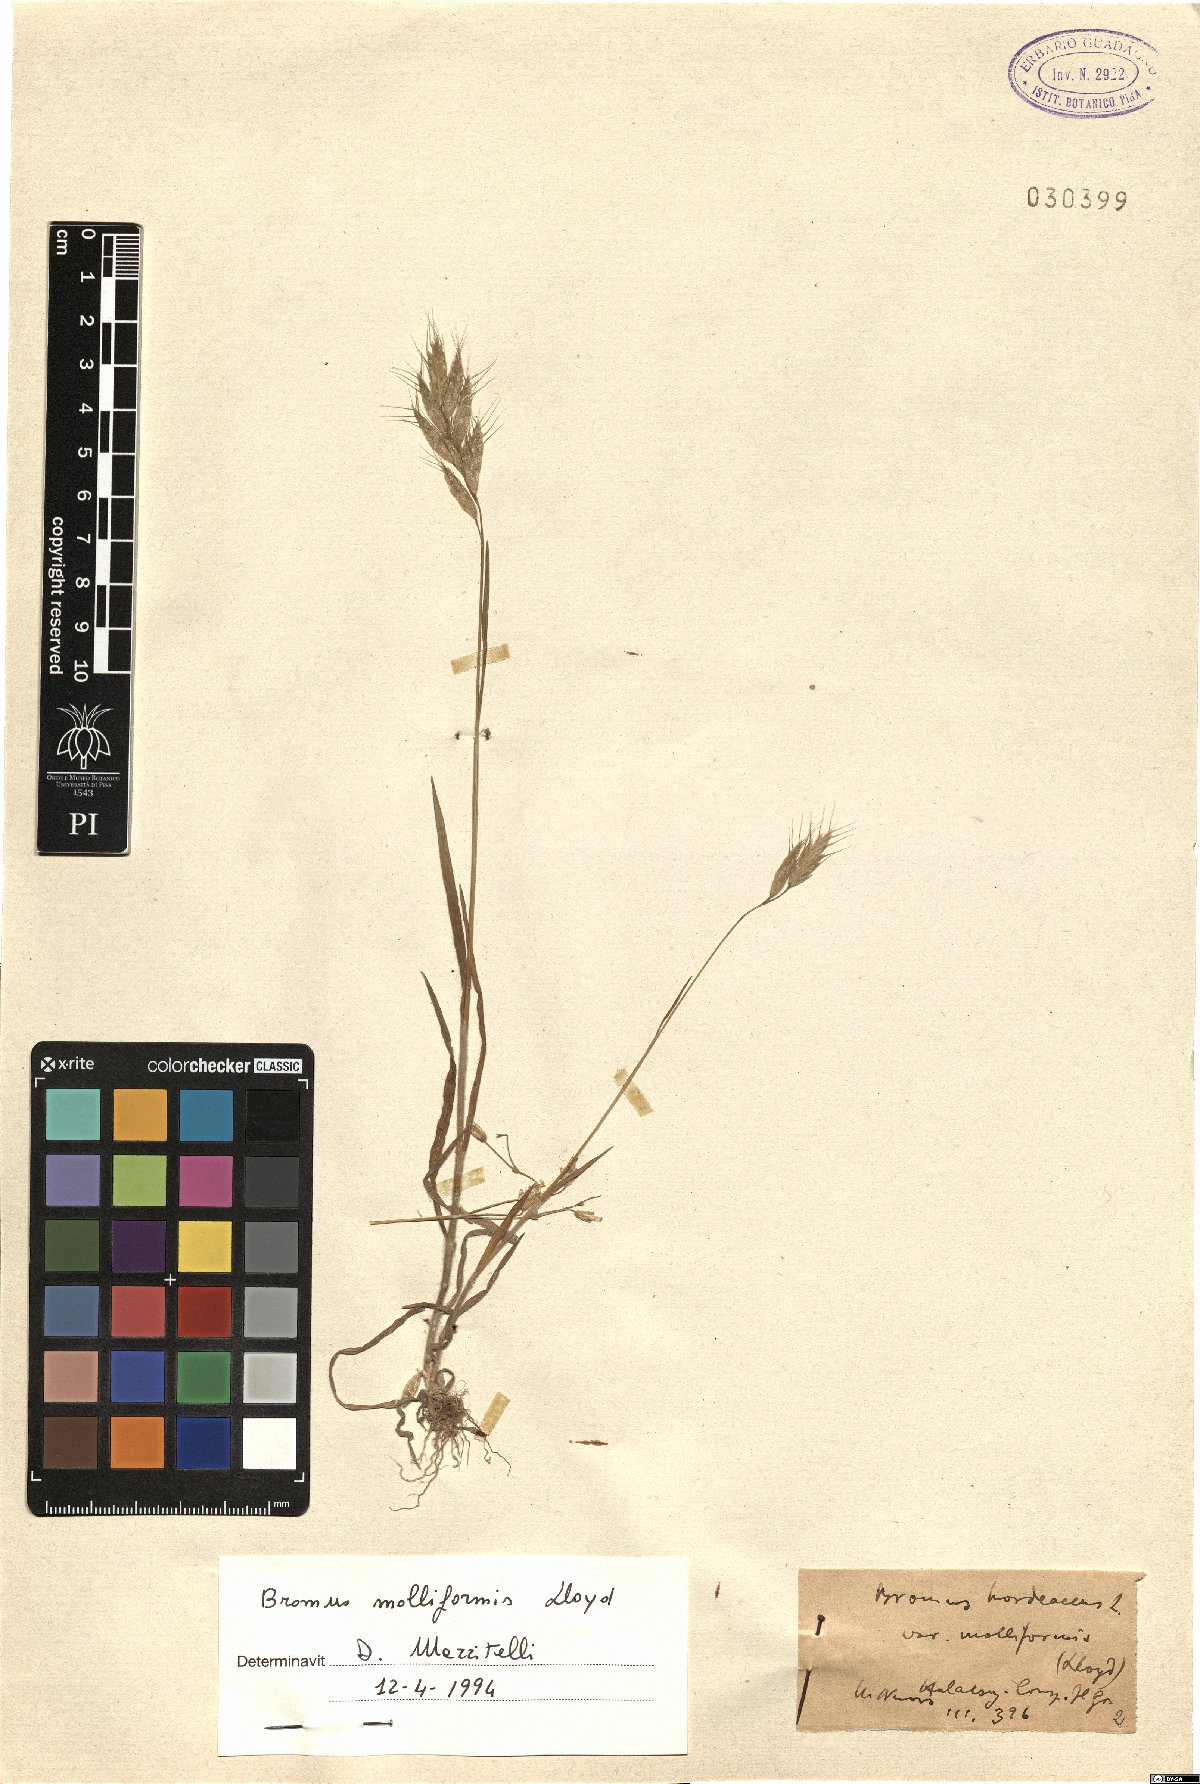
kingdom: Plantae
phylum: Tracheophyta
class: Liliopsida
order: Poales
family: Poaceae
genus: Bromus
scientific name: Bromus hordeaceus
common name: Soft brome
